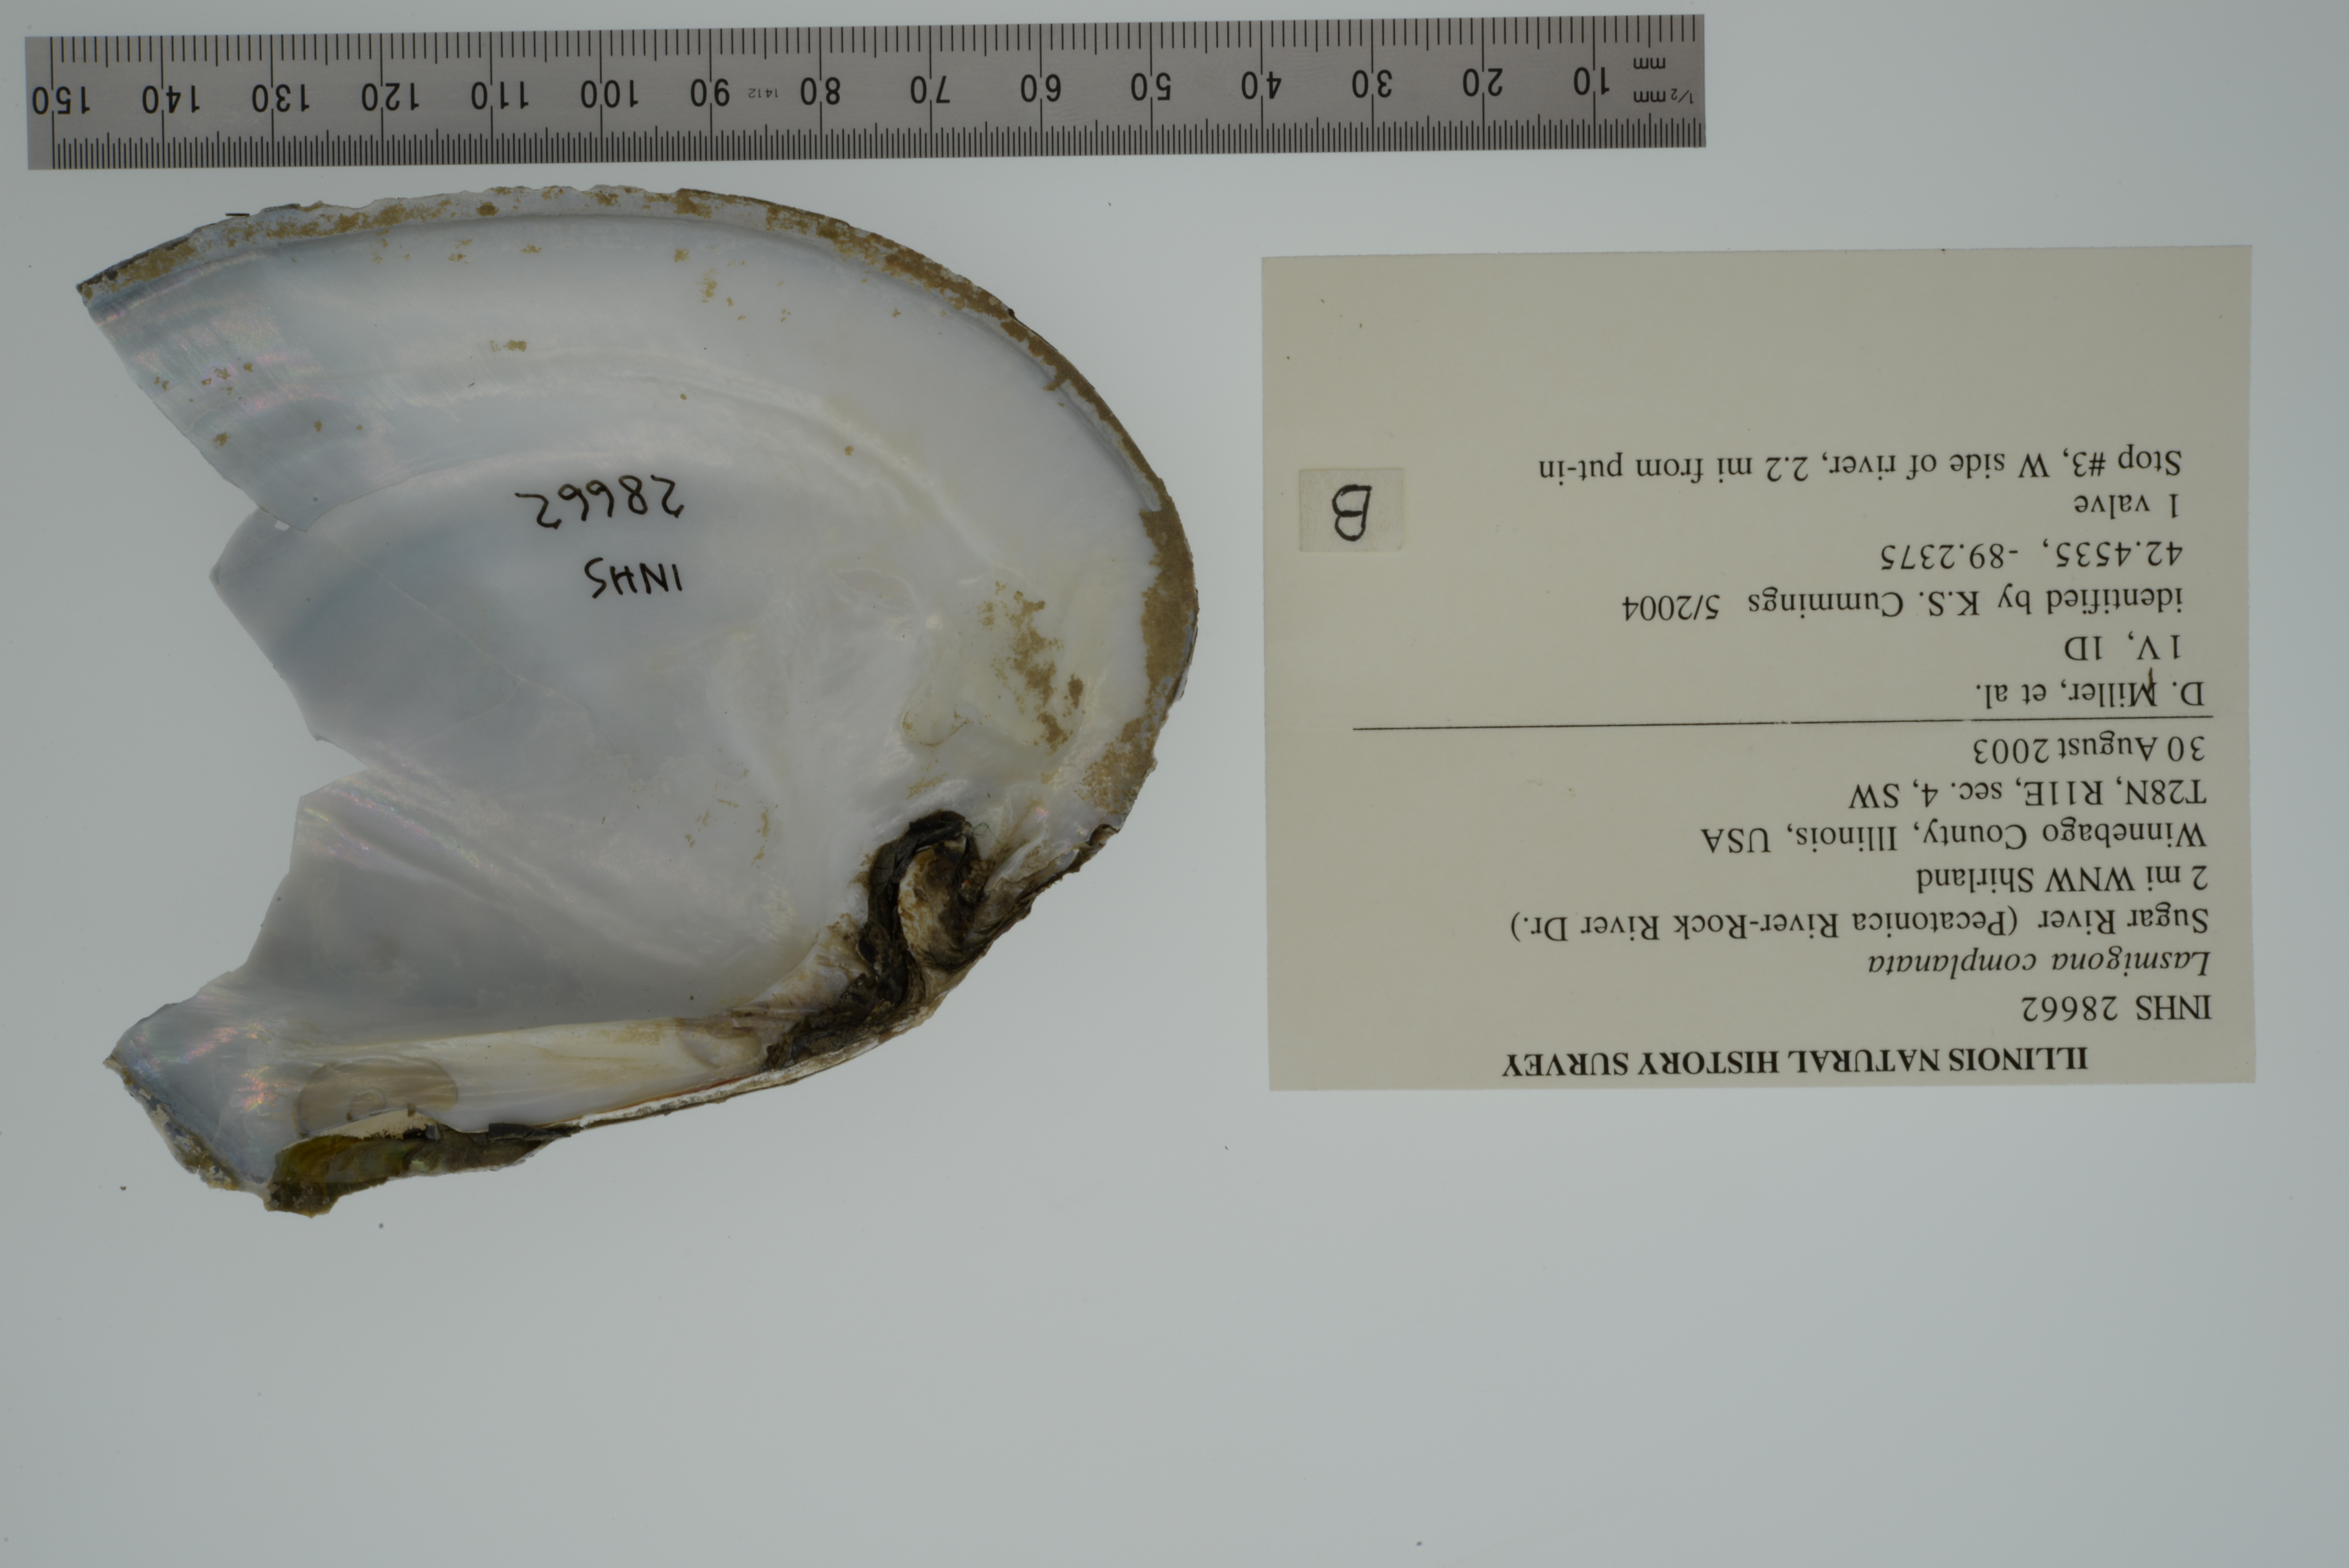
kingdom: Animalia
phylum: Mollusca
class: Bivalvia
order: Unionida
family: Unionidae
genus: Lasmigona
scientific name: Lasmigona complanata
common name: White heelsplitter
